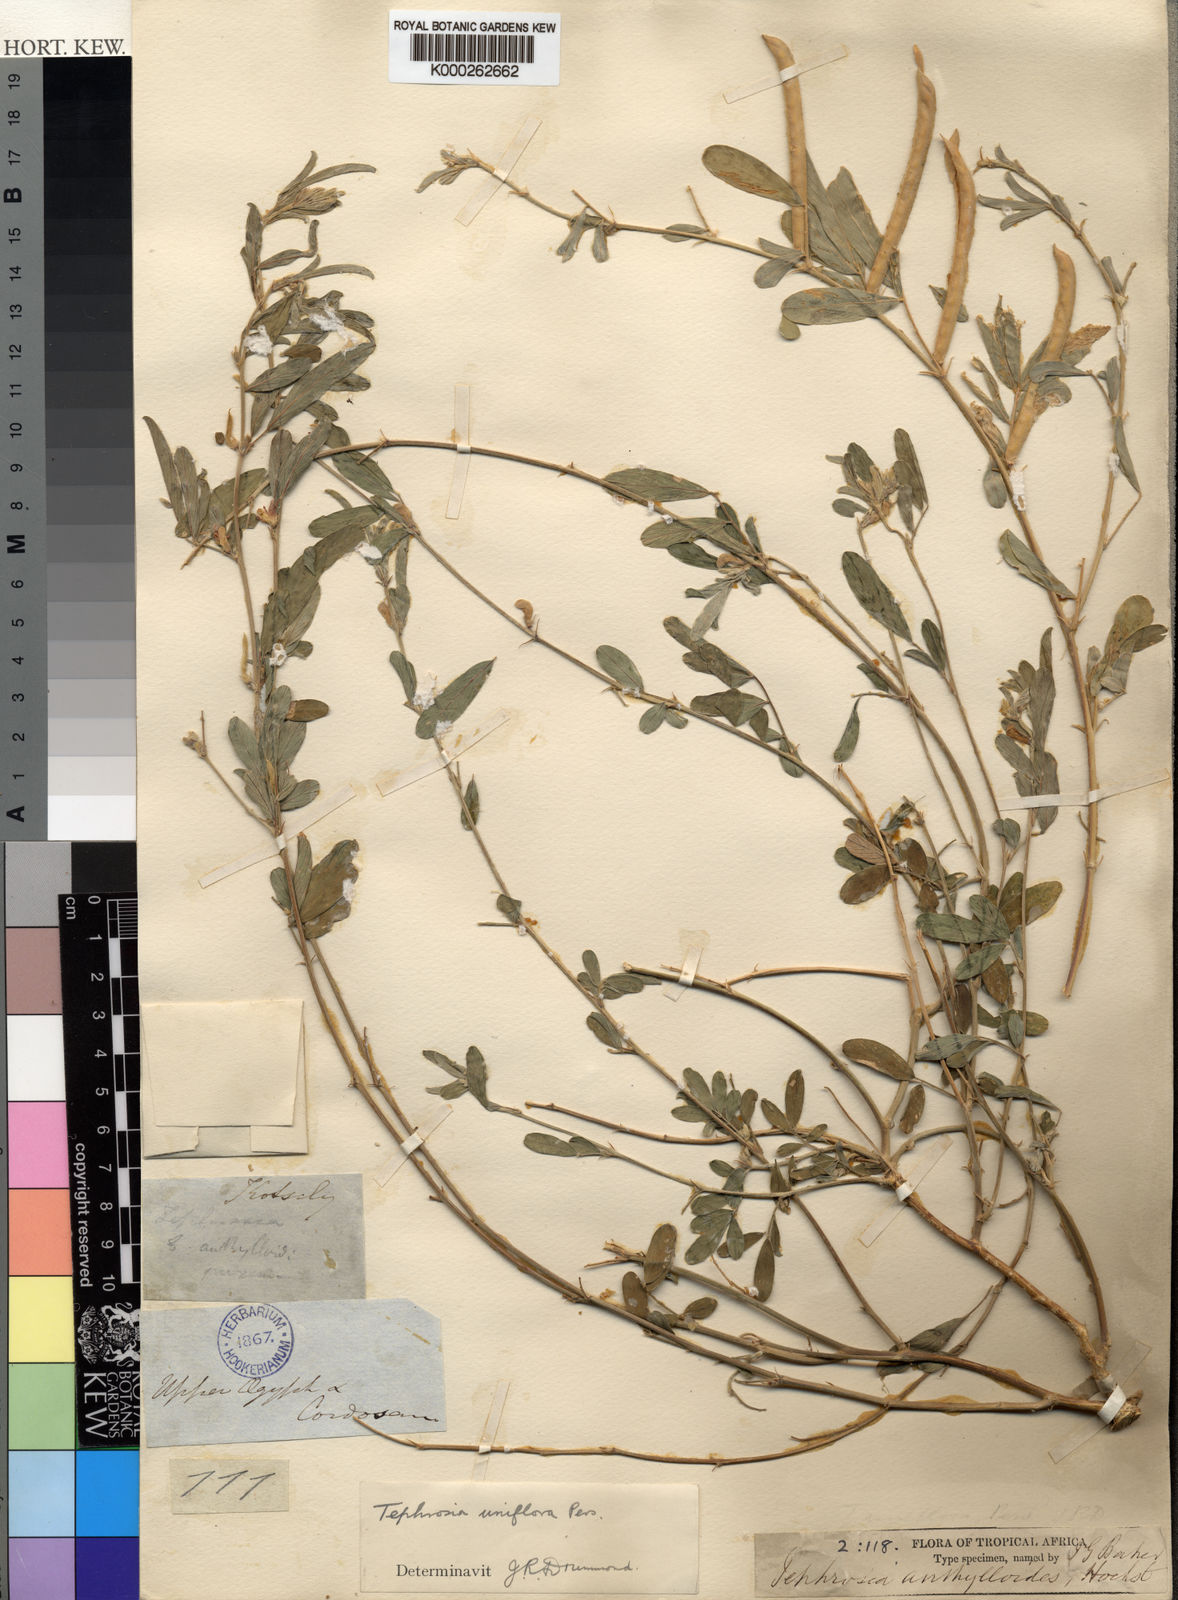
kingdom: Plantae
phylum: Tracheophyta
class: Magnoliopsida
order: Fabales
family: Fabaceae
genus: Tephrosia
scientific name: Tephrosia uniflora
